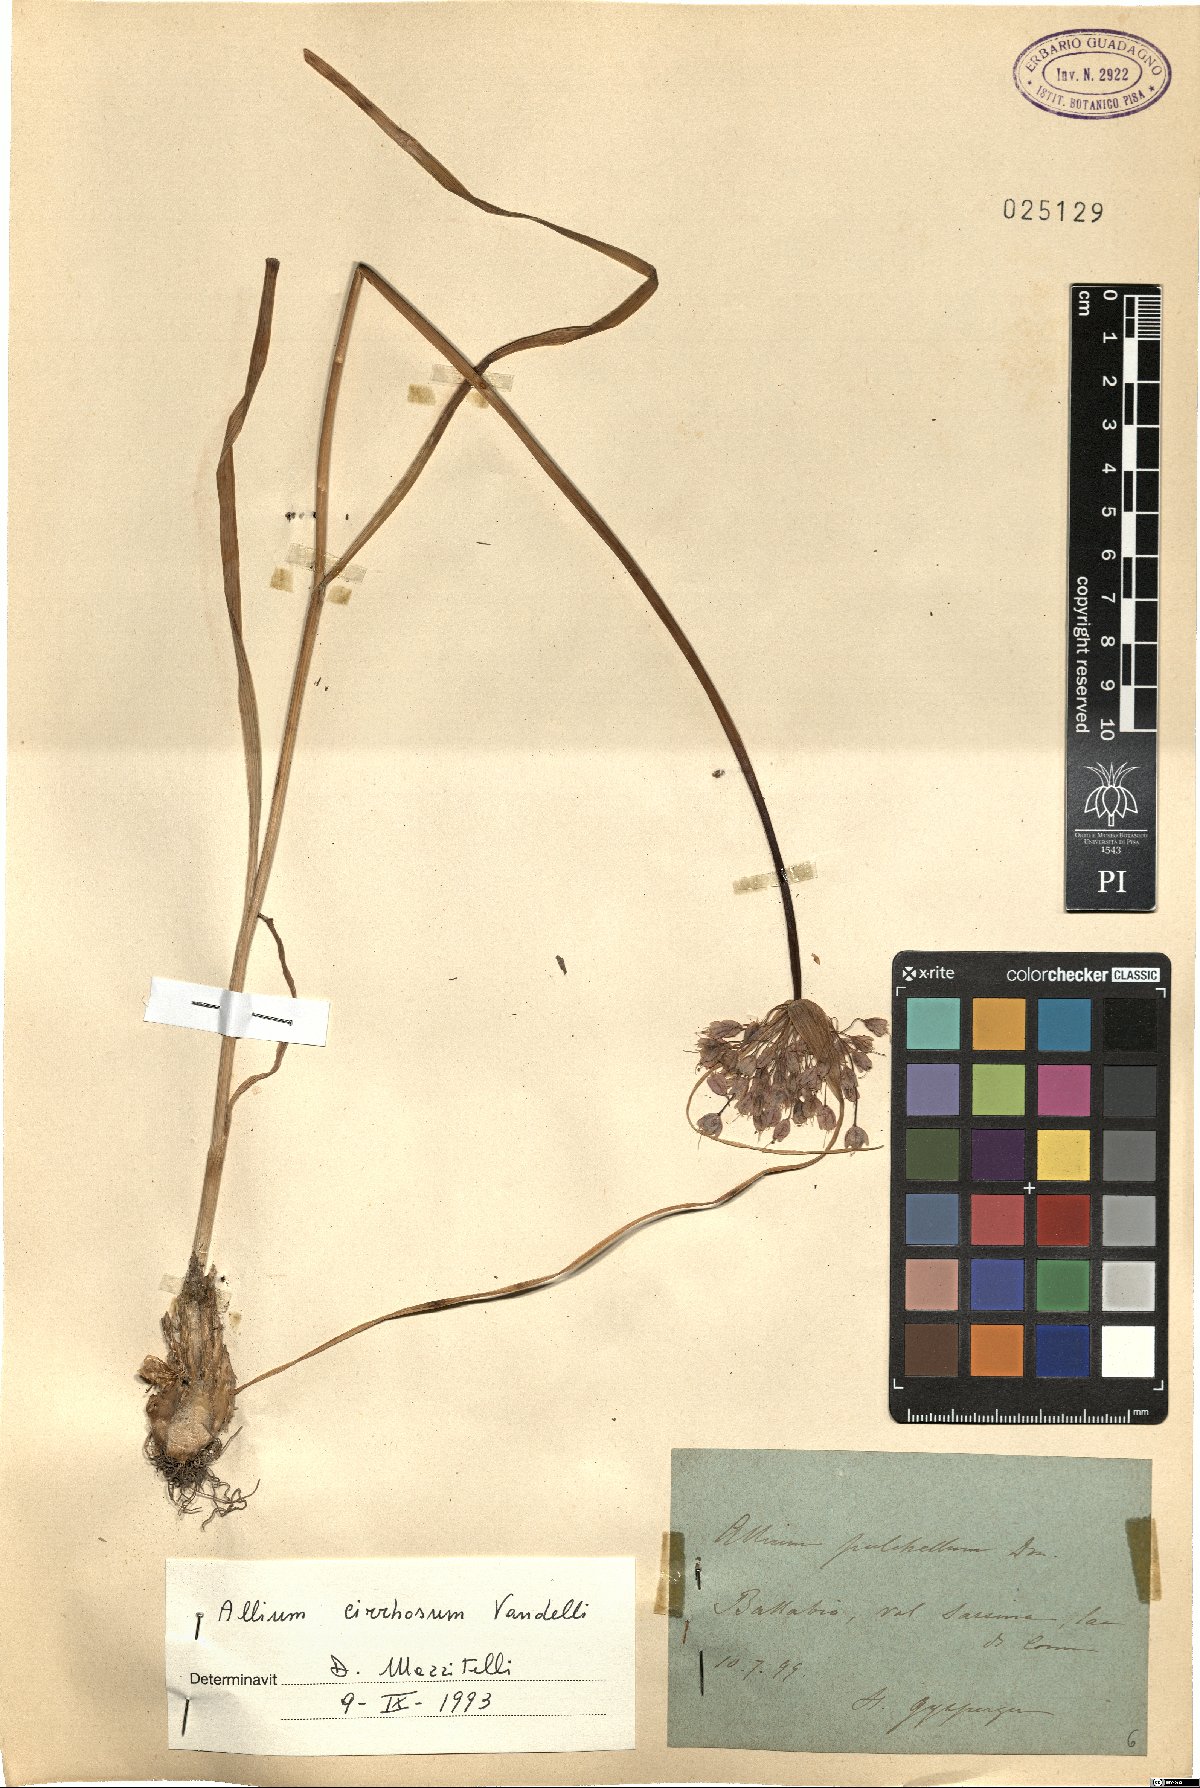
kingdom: Plantae
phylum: Tracheophyta
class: Liliopsida
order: Asparagales
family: Amaryllidaceae
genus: Allium
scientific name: Allium coloratum
